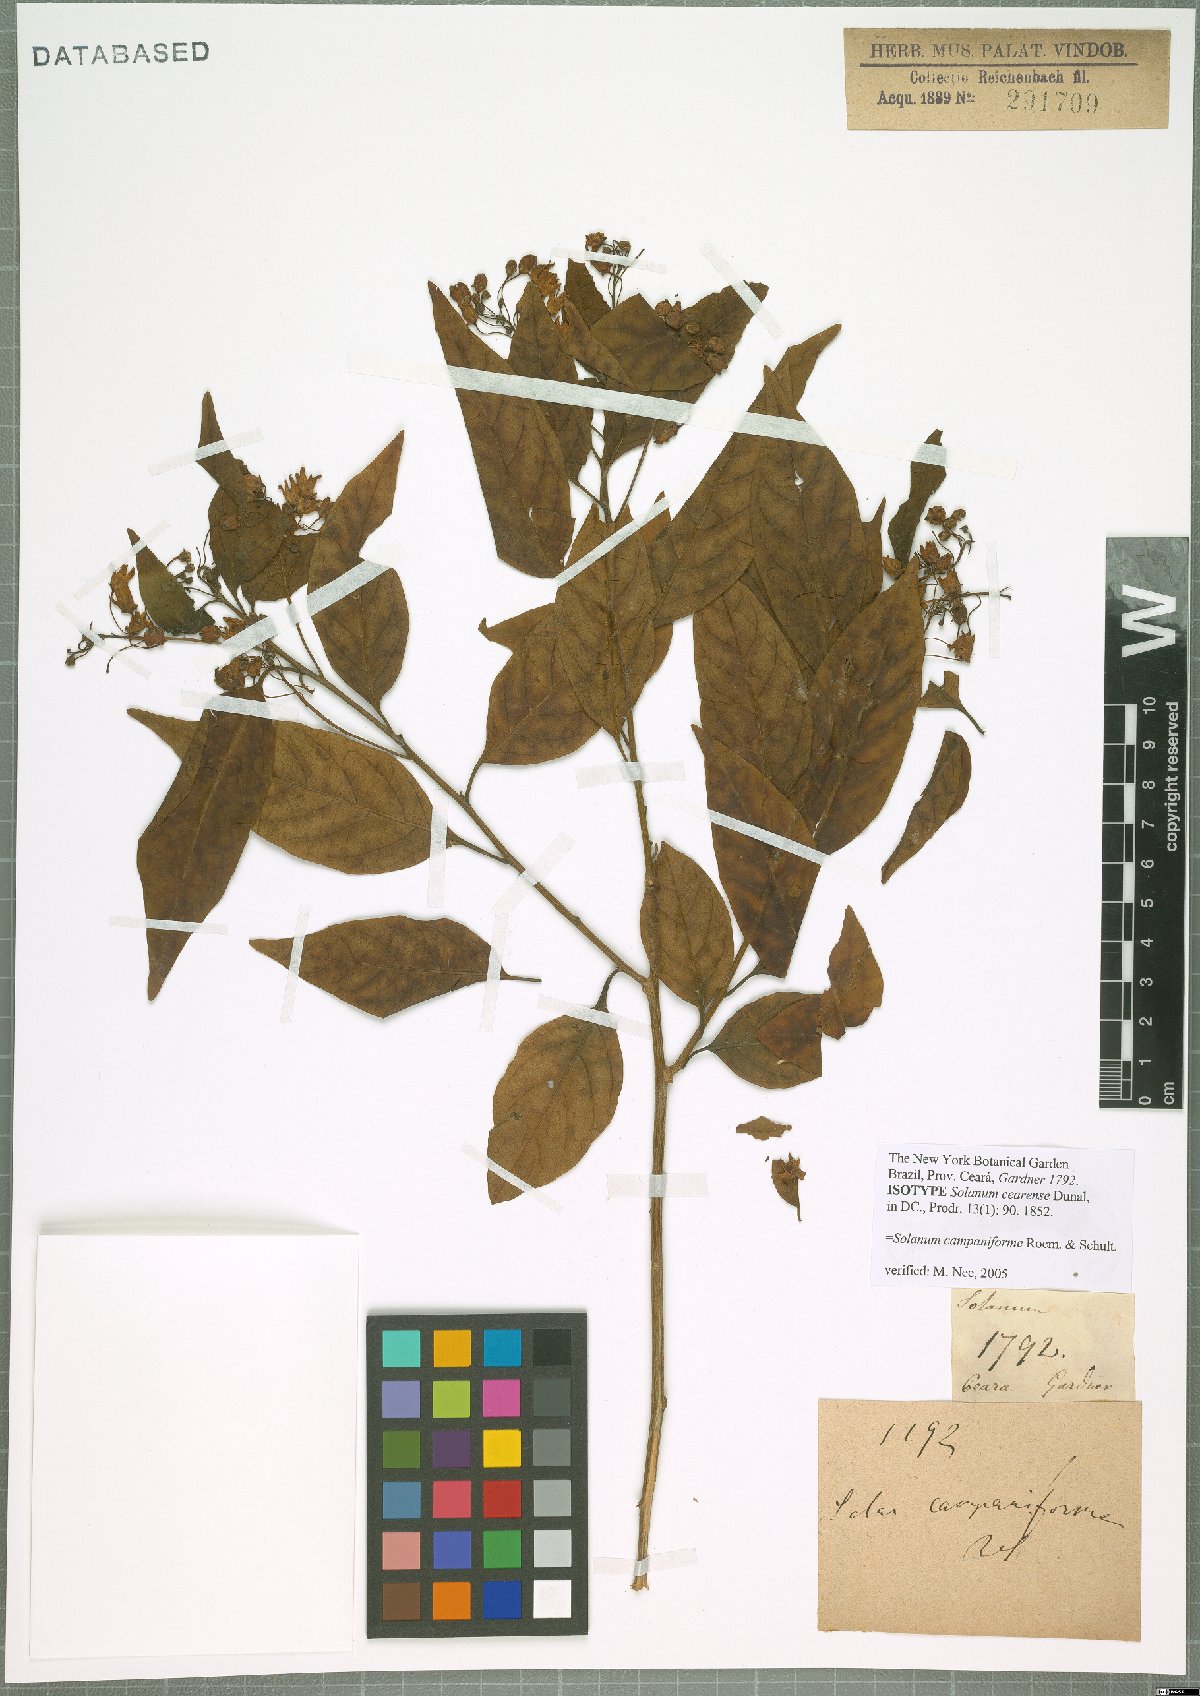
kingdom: Plantae
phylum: Tracheophyta
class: Magnoliopsida
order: Solanales
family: Solanaceae
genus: Solanum
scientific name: Solanum campaniforme
